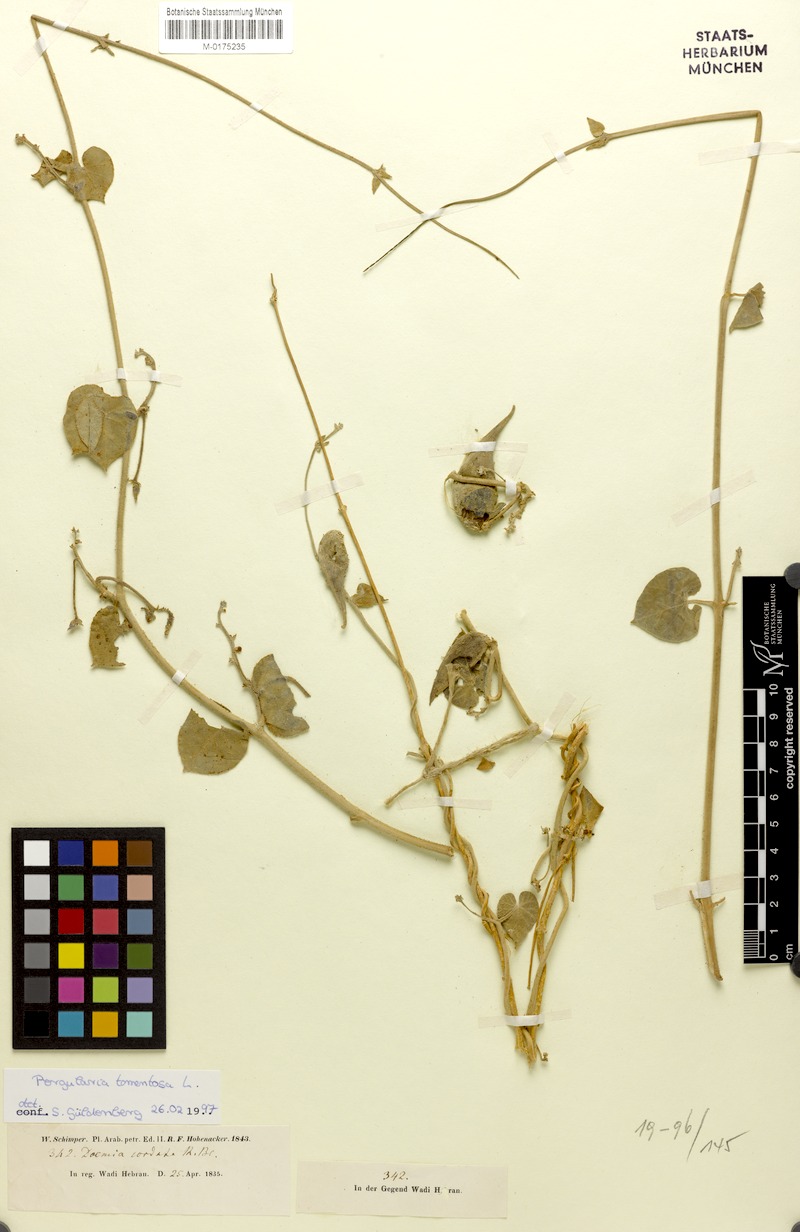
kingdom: Plantae
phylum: Tracheophyta
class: Magnoliopsida
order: Gentianales
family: Apocynaceae
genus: Pergularia
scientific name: Pergularia tomentosa
